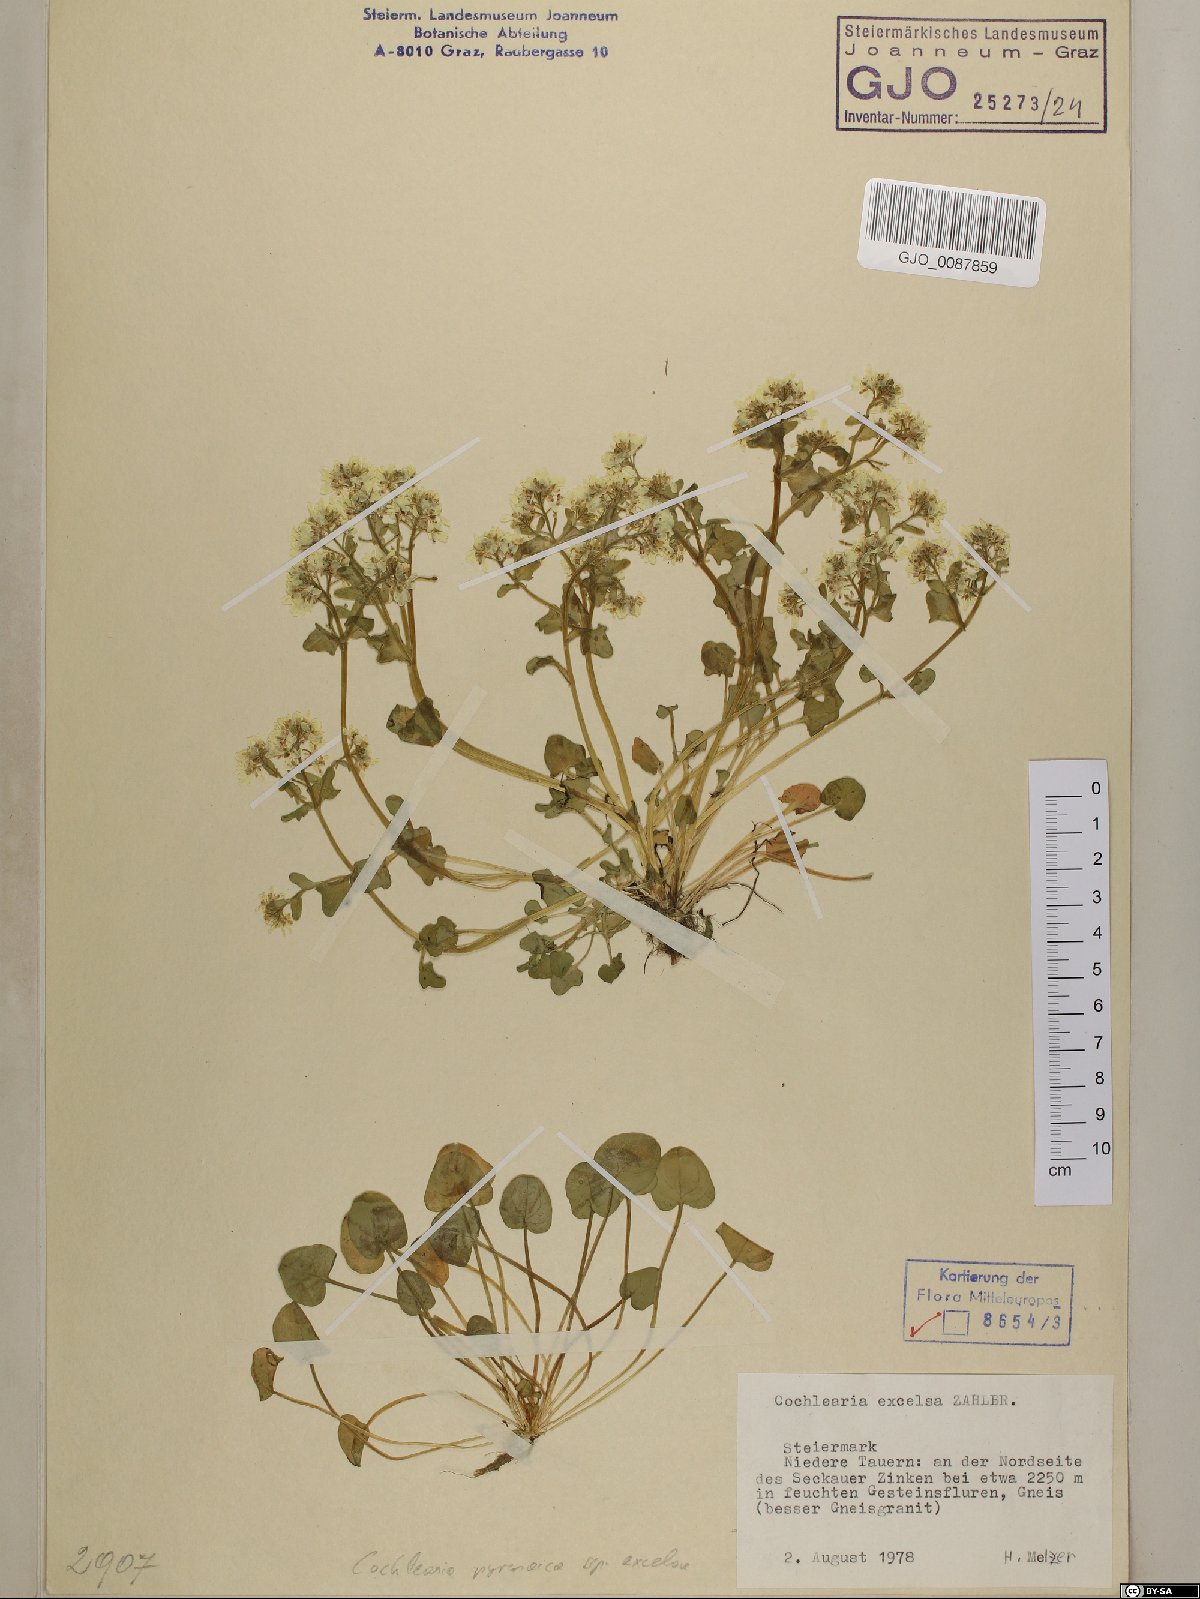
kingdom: Plantae
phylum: Tracheophyta
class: Magnoliopsida
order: Brassicales
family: Brassicaceae
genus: Cochlearia
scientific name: Cochlearia pyrenaica
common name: Upland scurvy-grass
